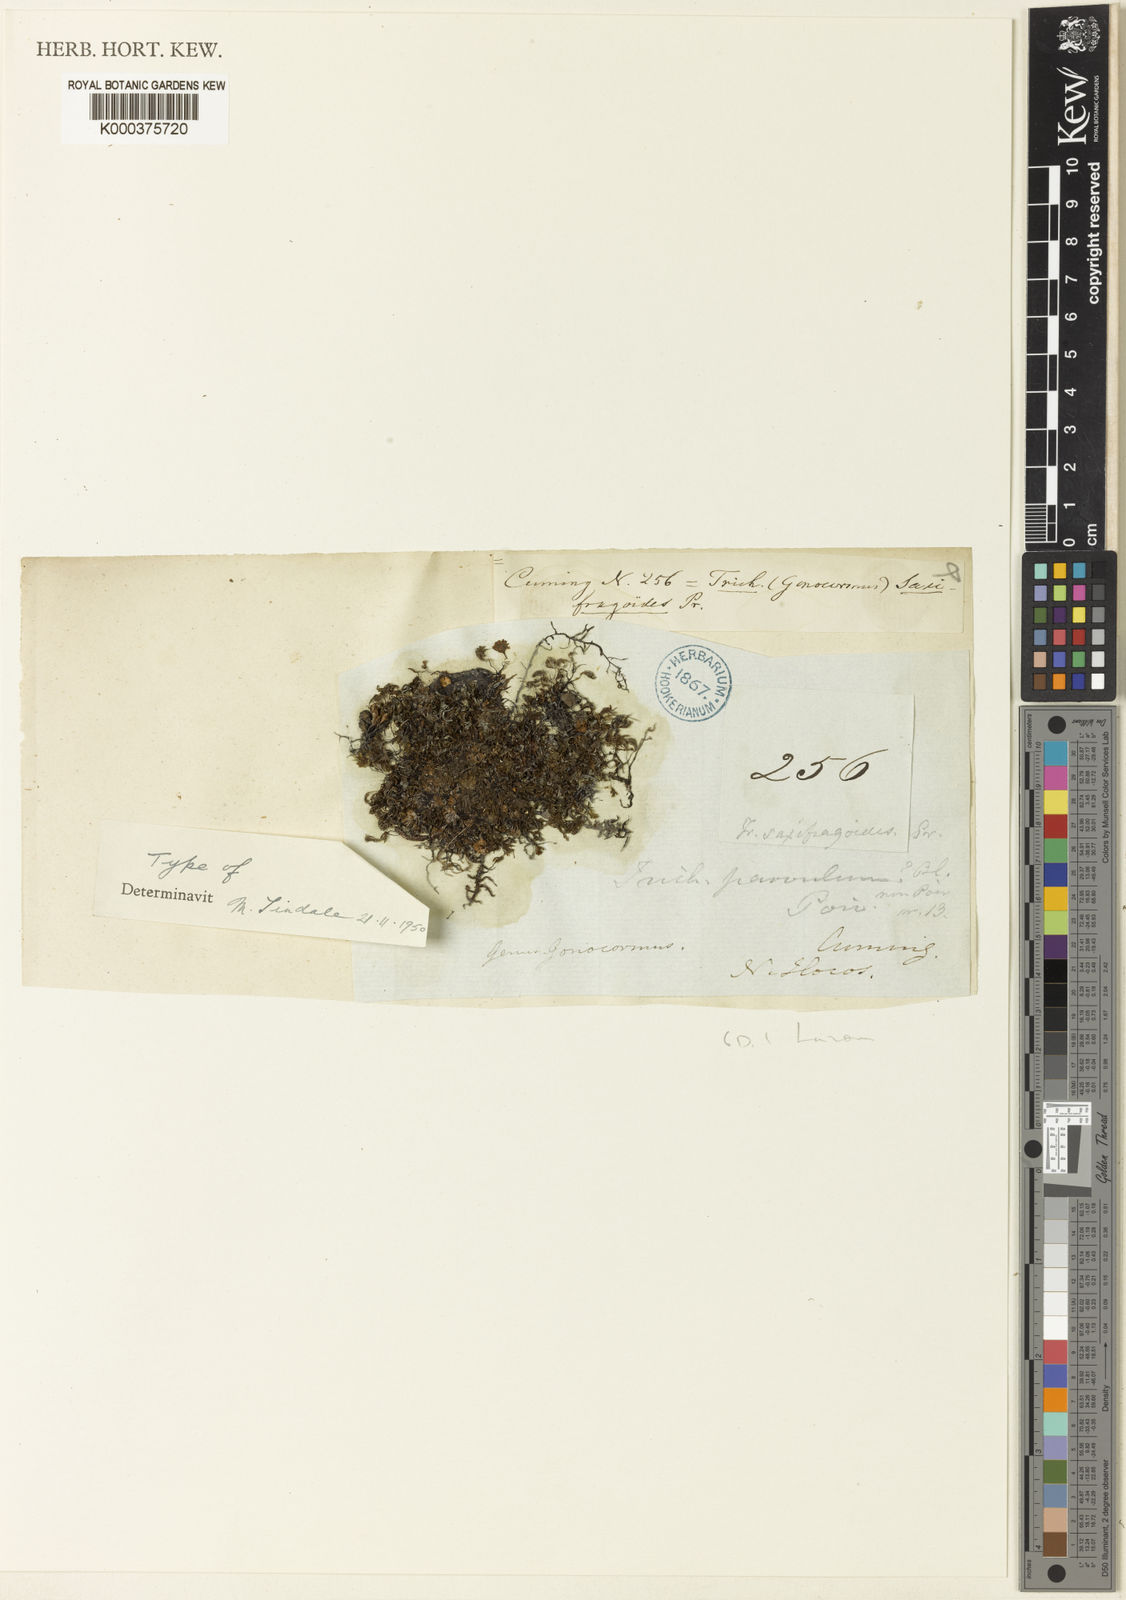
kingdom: Plantae
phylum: Tracheophyta
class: Polypodiopsida
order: Hymenophyllales
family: Hymenophyllaceae
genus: Crepidomanes
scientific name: Crepidomanes saxifragoides
